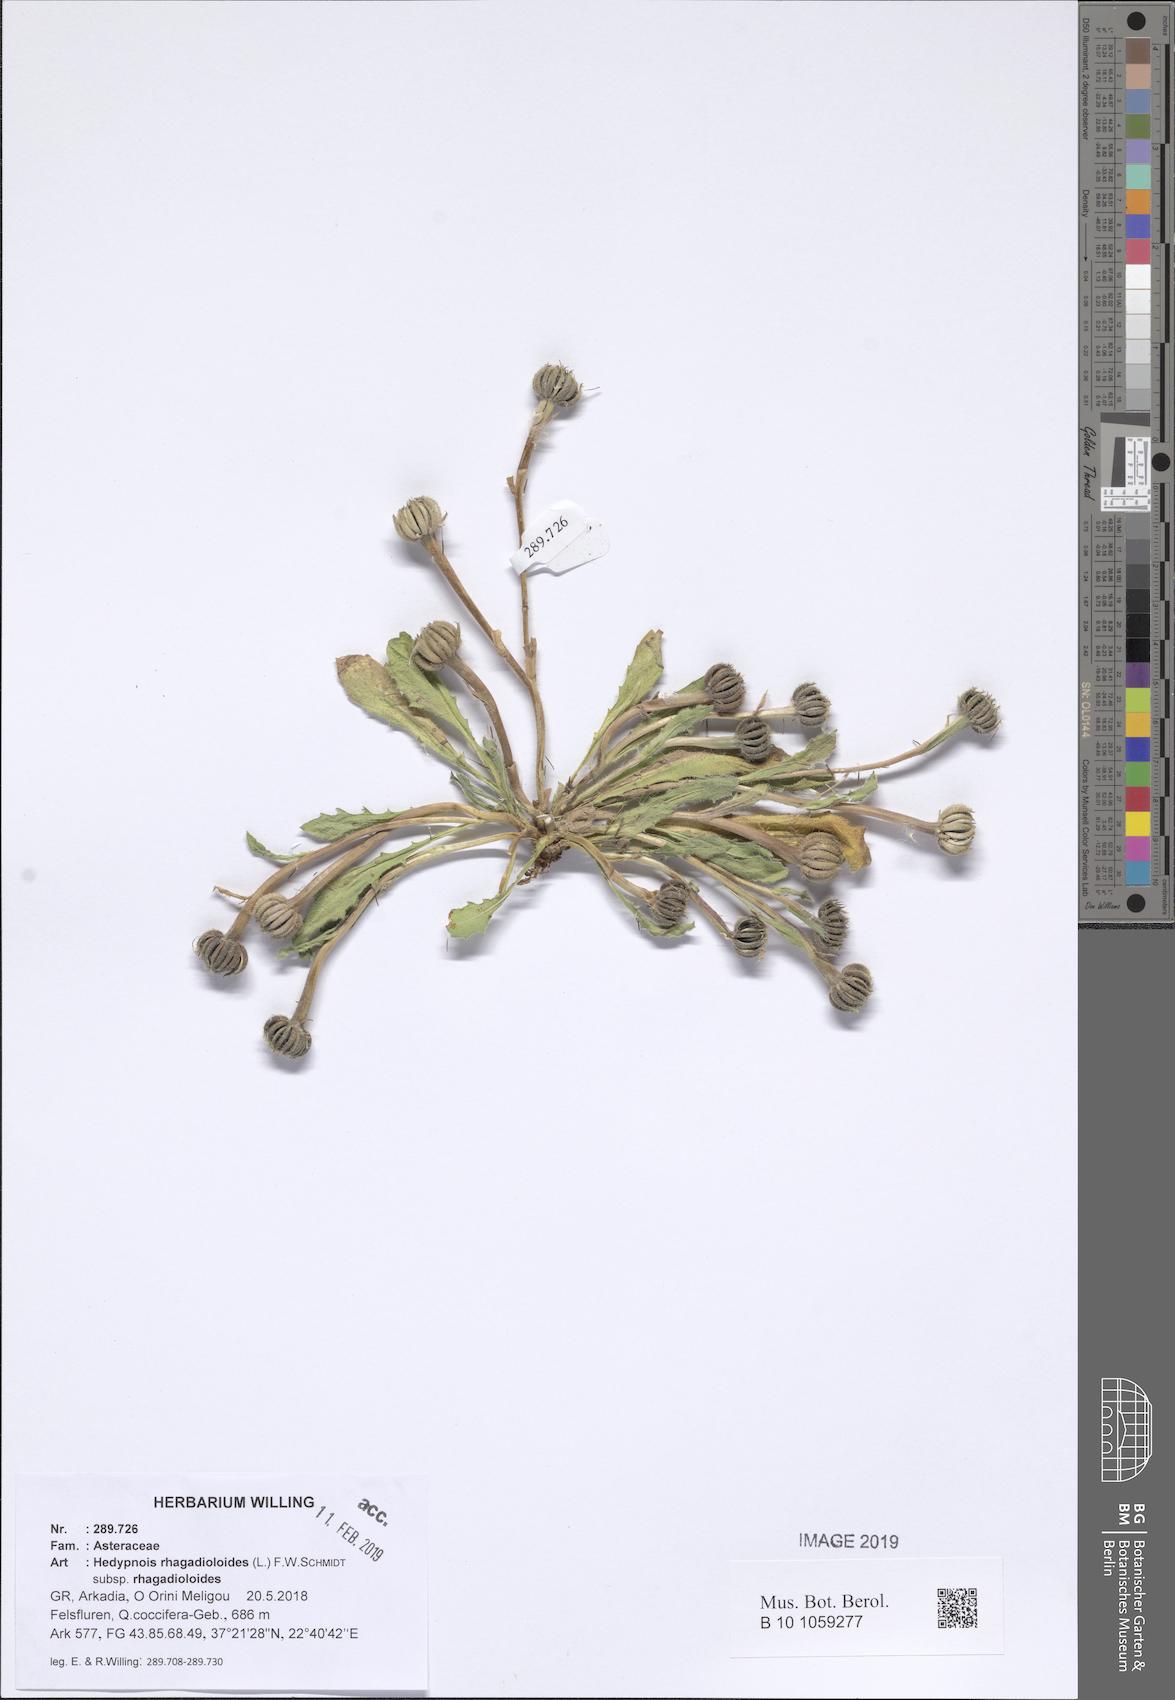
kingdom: Plantae
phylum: Tracheophyta
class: Magnoliopsida
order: Asterales
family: Asteraceae
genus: Hedypnois
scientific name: Hedypnois rhagadioloides
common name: Cretan weed
